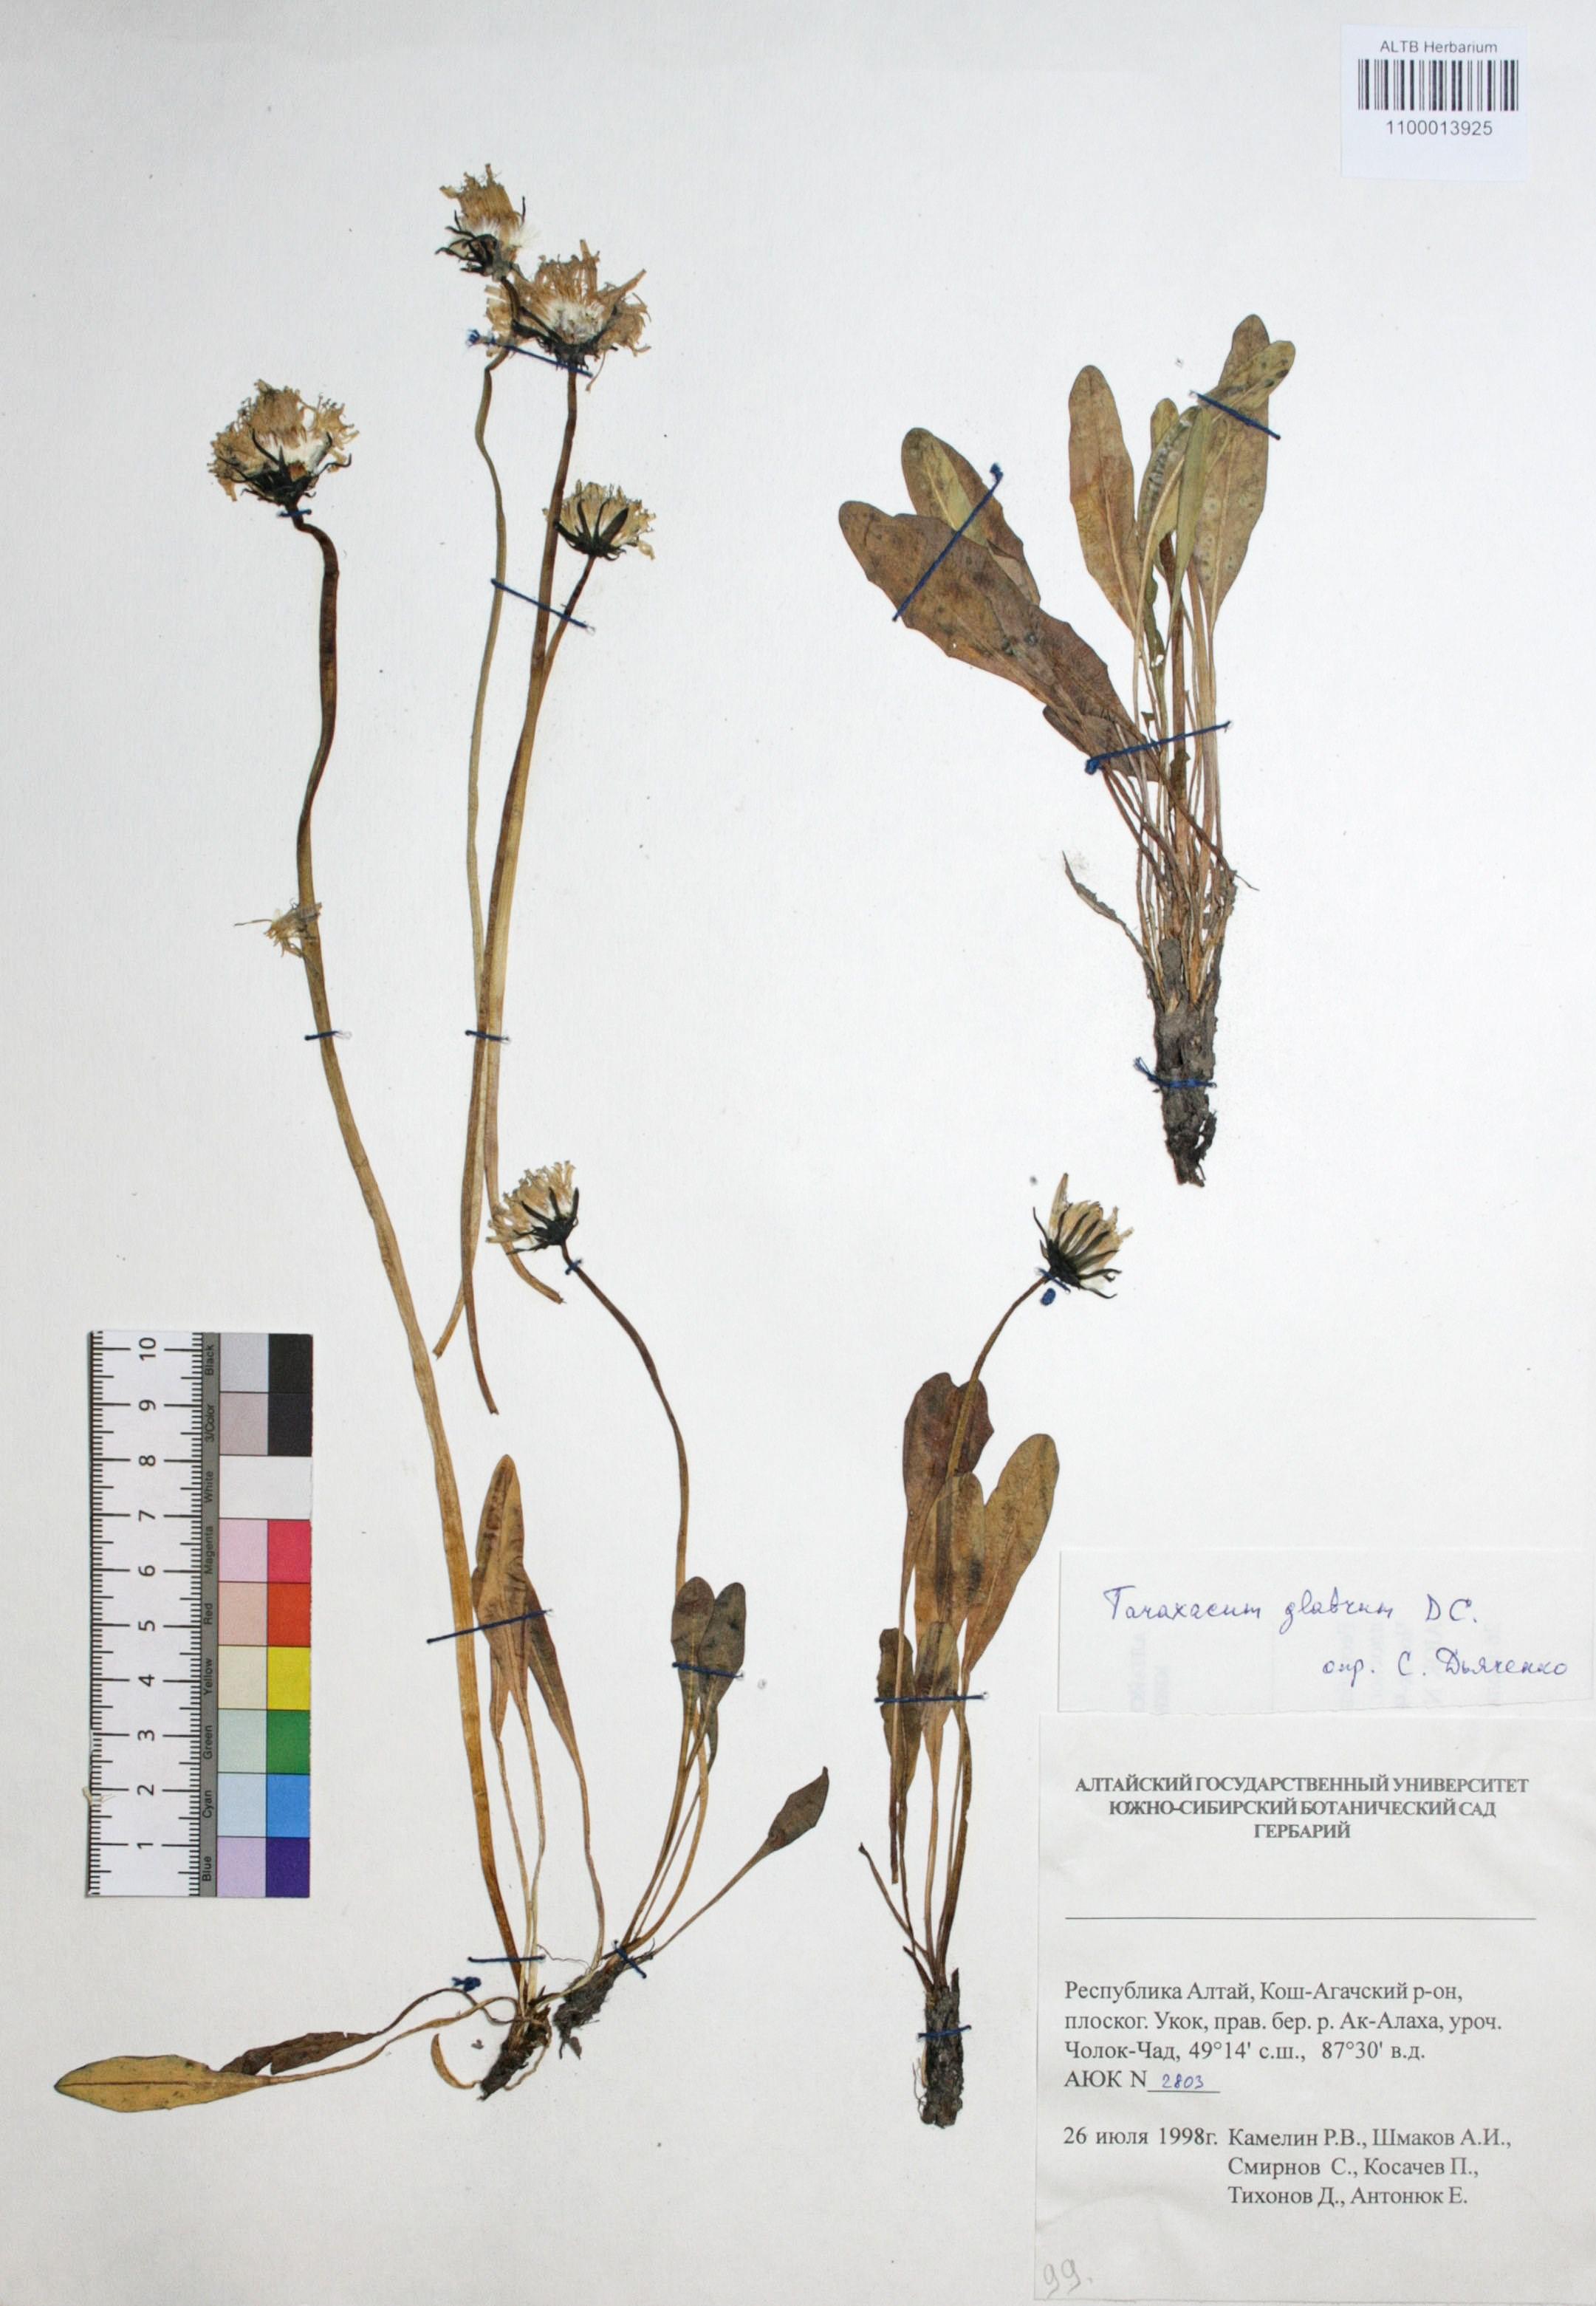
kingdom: Plantae
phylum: Tracheophyta
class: Magnoliopsida
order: Asterales
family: Asteraceae
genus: Taraxacum
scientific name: Taraxacum glabrum
